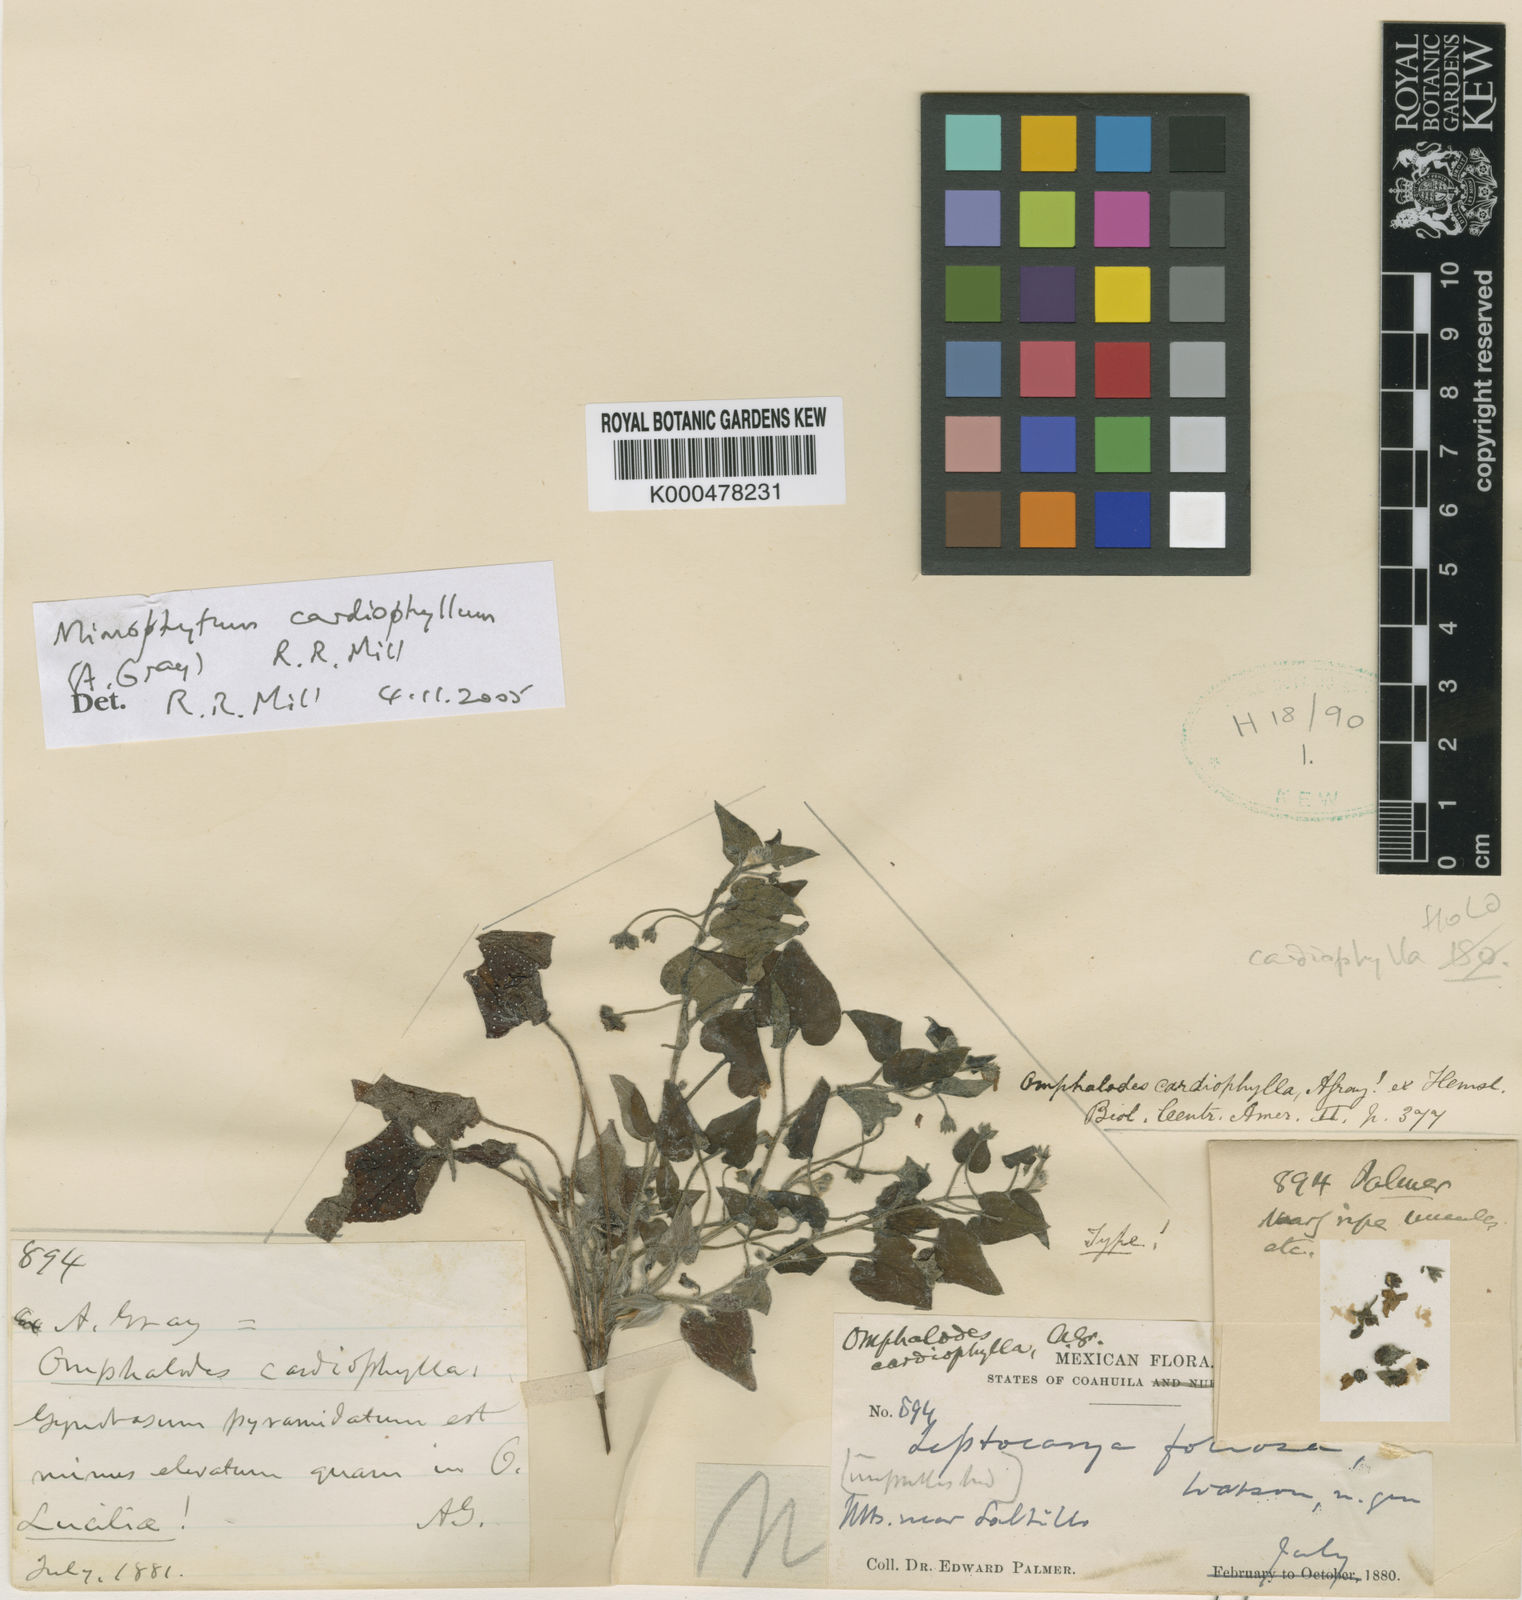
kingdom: Plantae
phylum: Tracheophyta
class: Magnoliopsida
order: Boraginales
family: Boraginaceae
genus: Mimophytum
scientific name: Mimophytum
